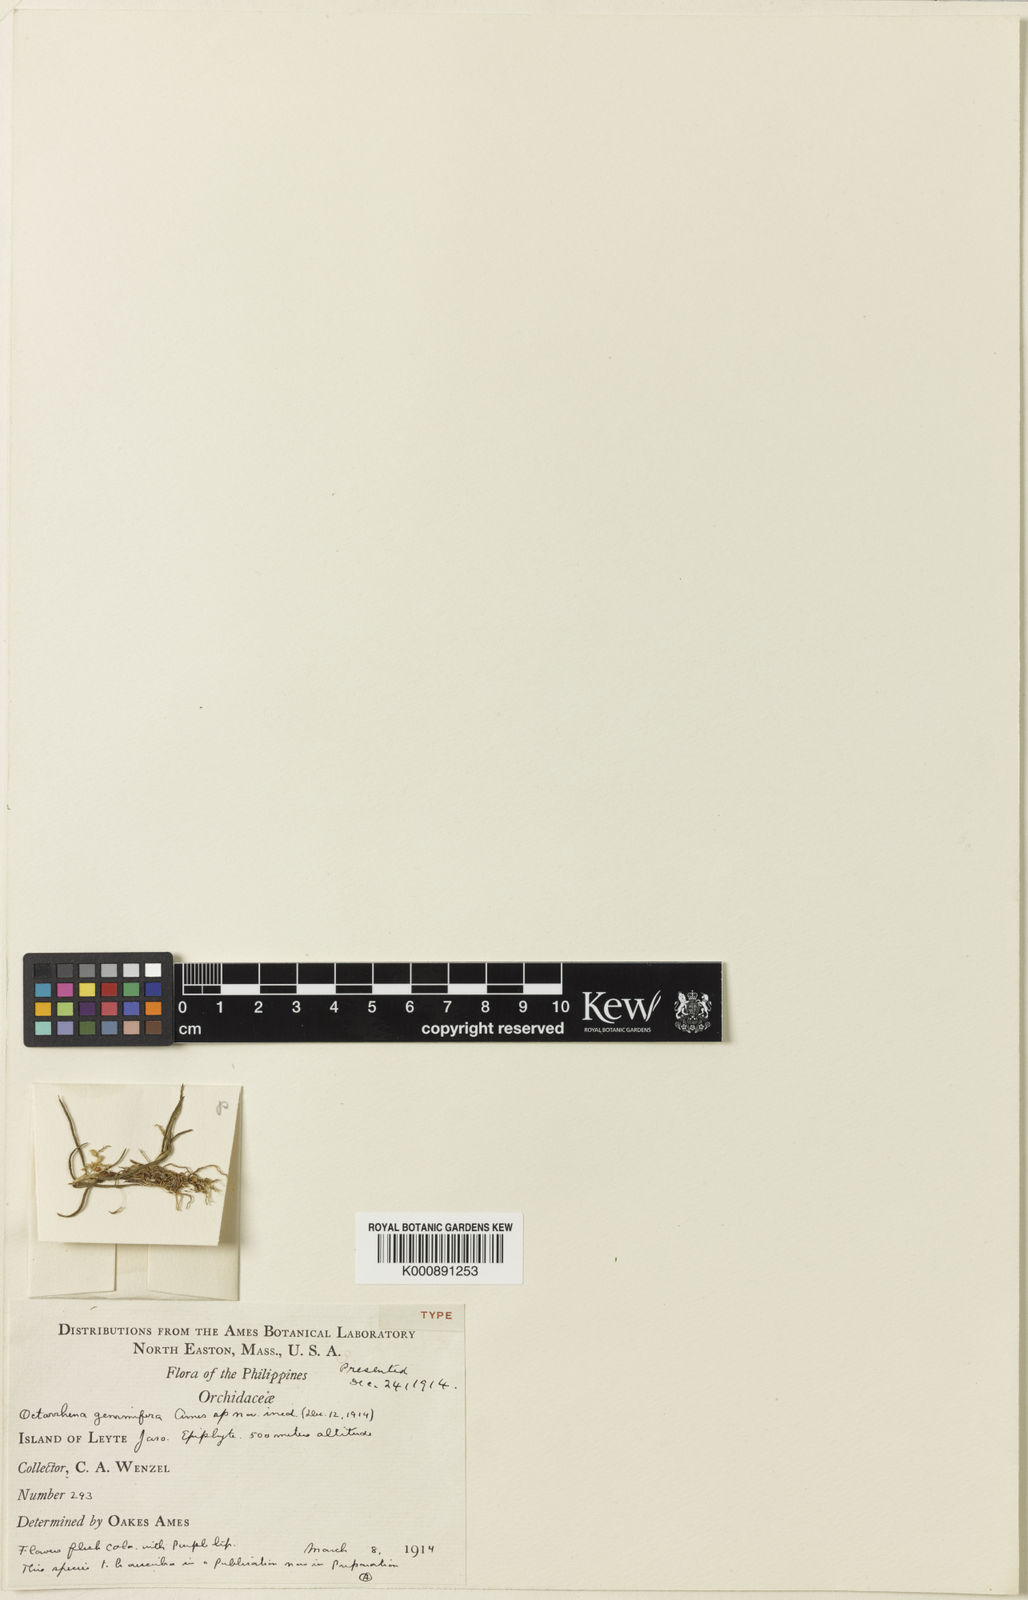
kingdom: Plantae
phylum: Tracheophyta
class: Liliopsida
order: Asparagales
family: Orchidaceae
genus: Octarrhena
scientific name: Octarrhena gemmifera
